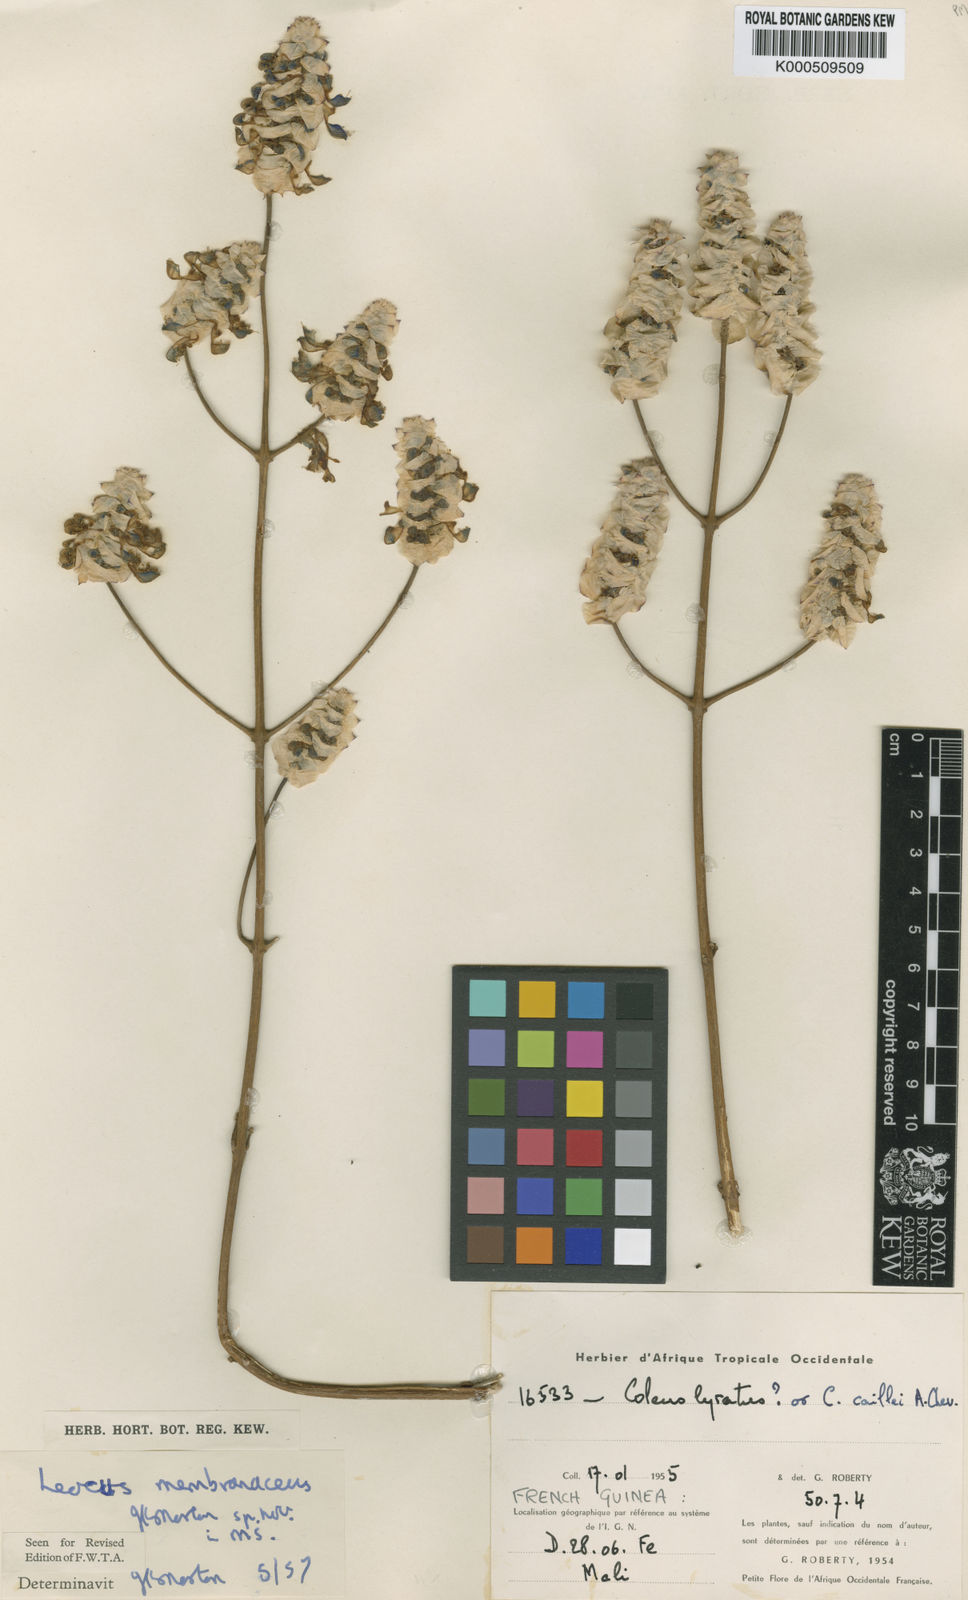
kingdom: Plantae
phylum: Tracheophyta
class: Magnoliopsida
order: Lamiales
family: Lamiaceae
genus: Coleus
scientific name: Coleus humulopsis
